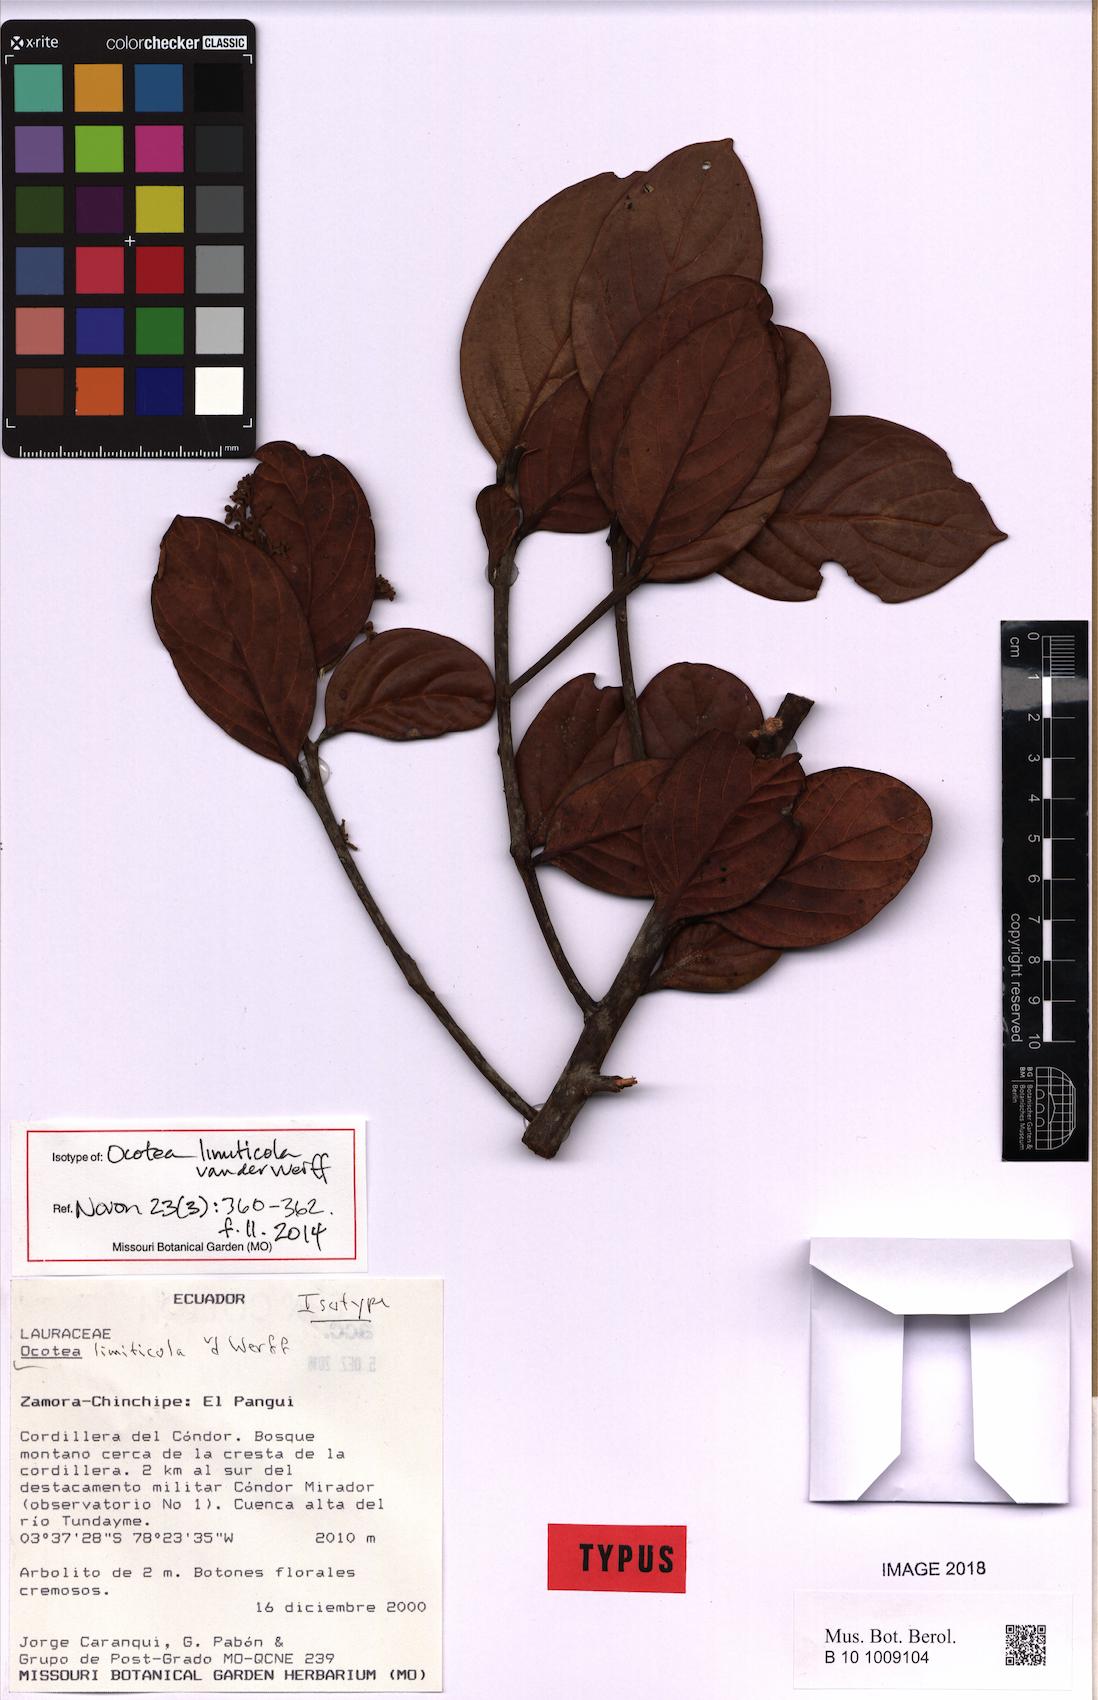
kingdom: Plantae
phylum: Tracheophyta
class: Magnoliopsida
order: Laurales
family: Lauraceae
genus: Ocotea
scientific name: Ocotea limiticola
